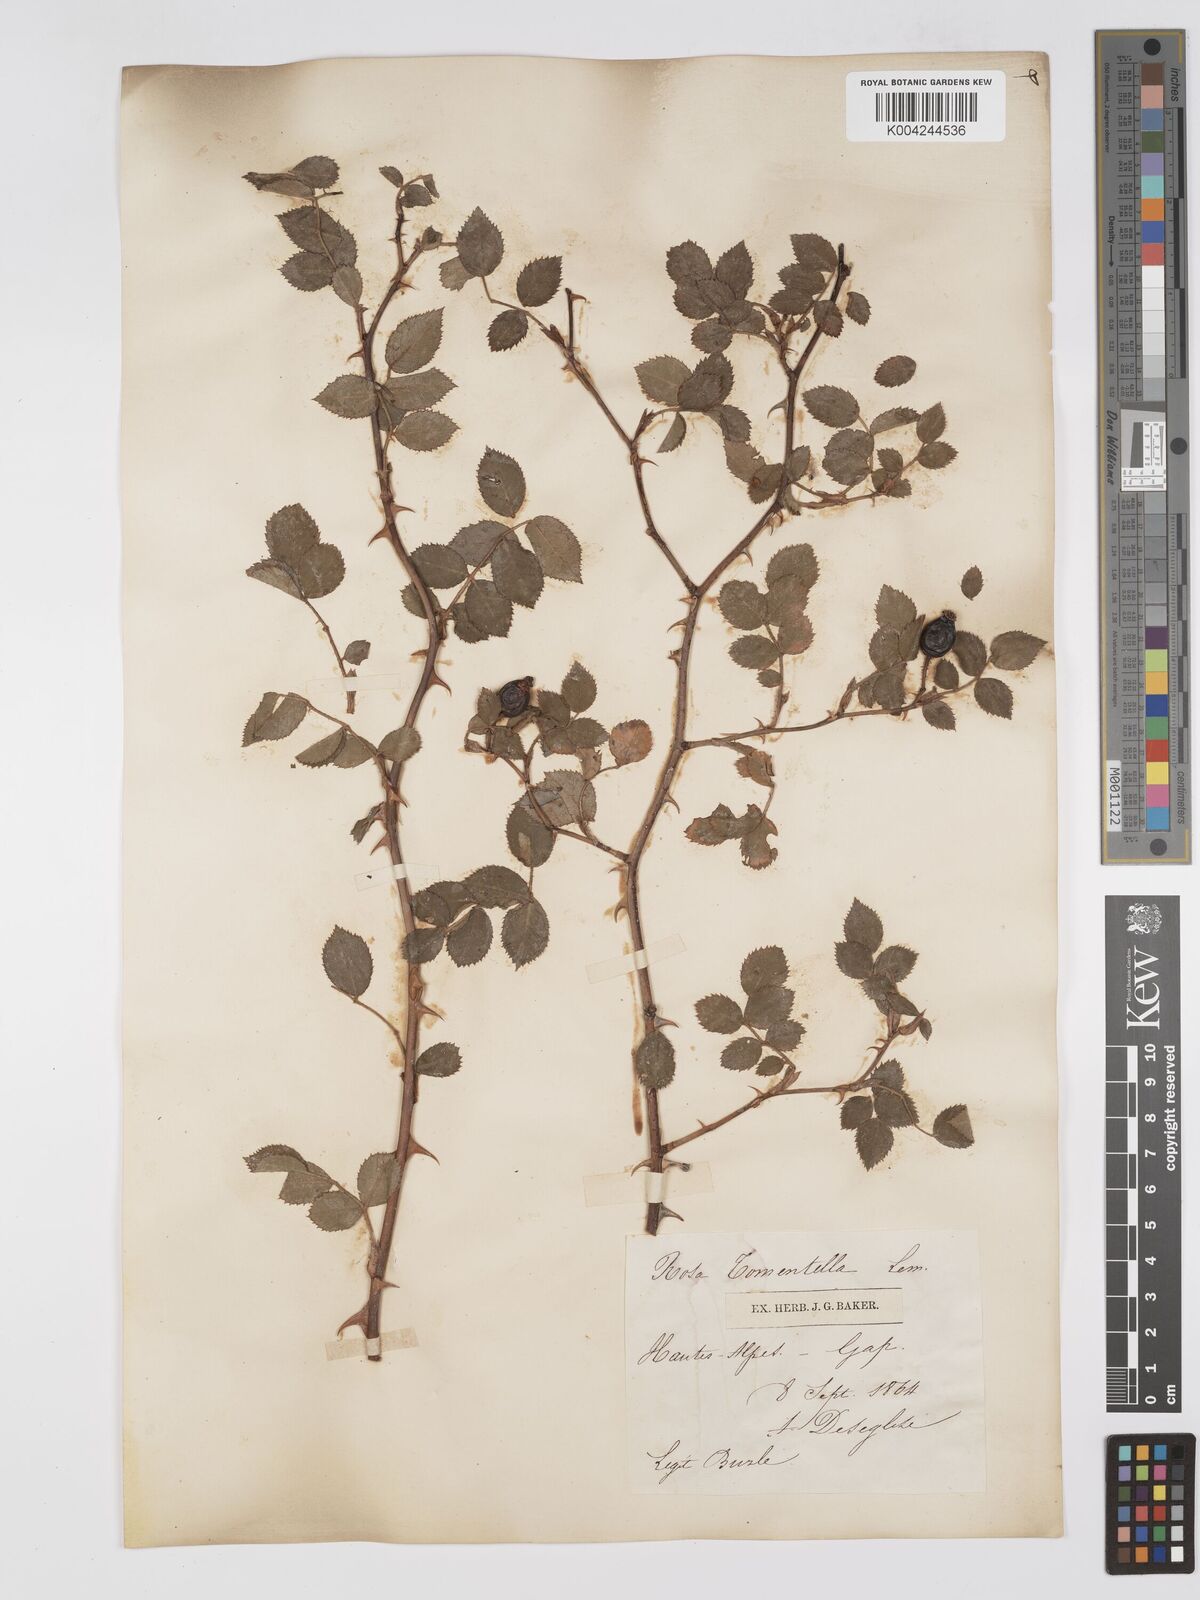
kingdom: Plantae
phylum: Tracheophyta
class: Magnoliopsida
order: Rosales
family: Rosaceae
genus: Rosa
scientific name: Rosa
